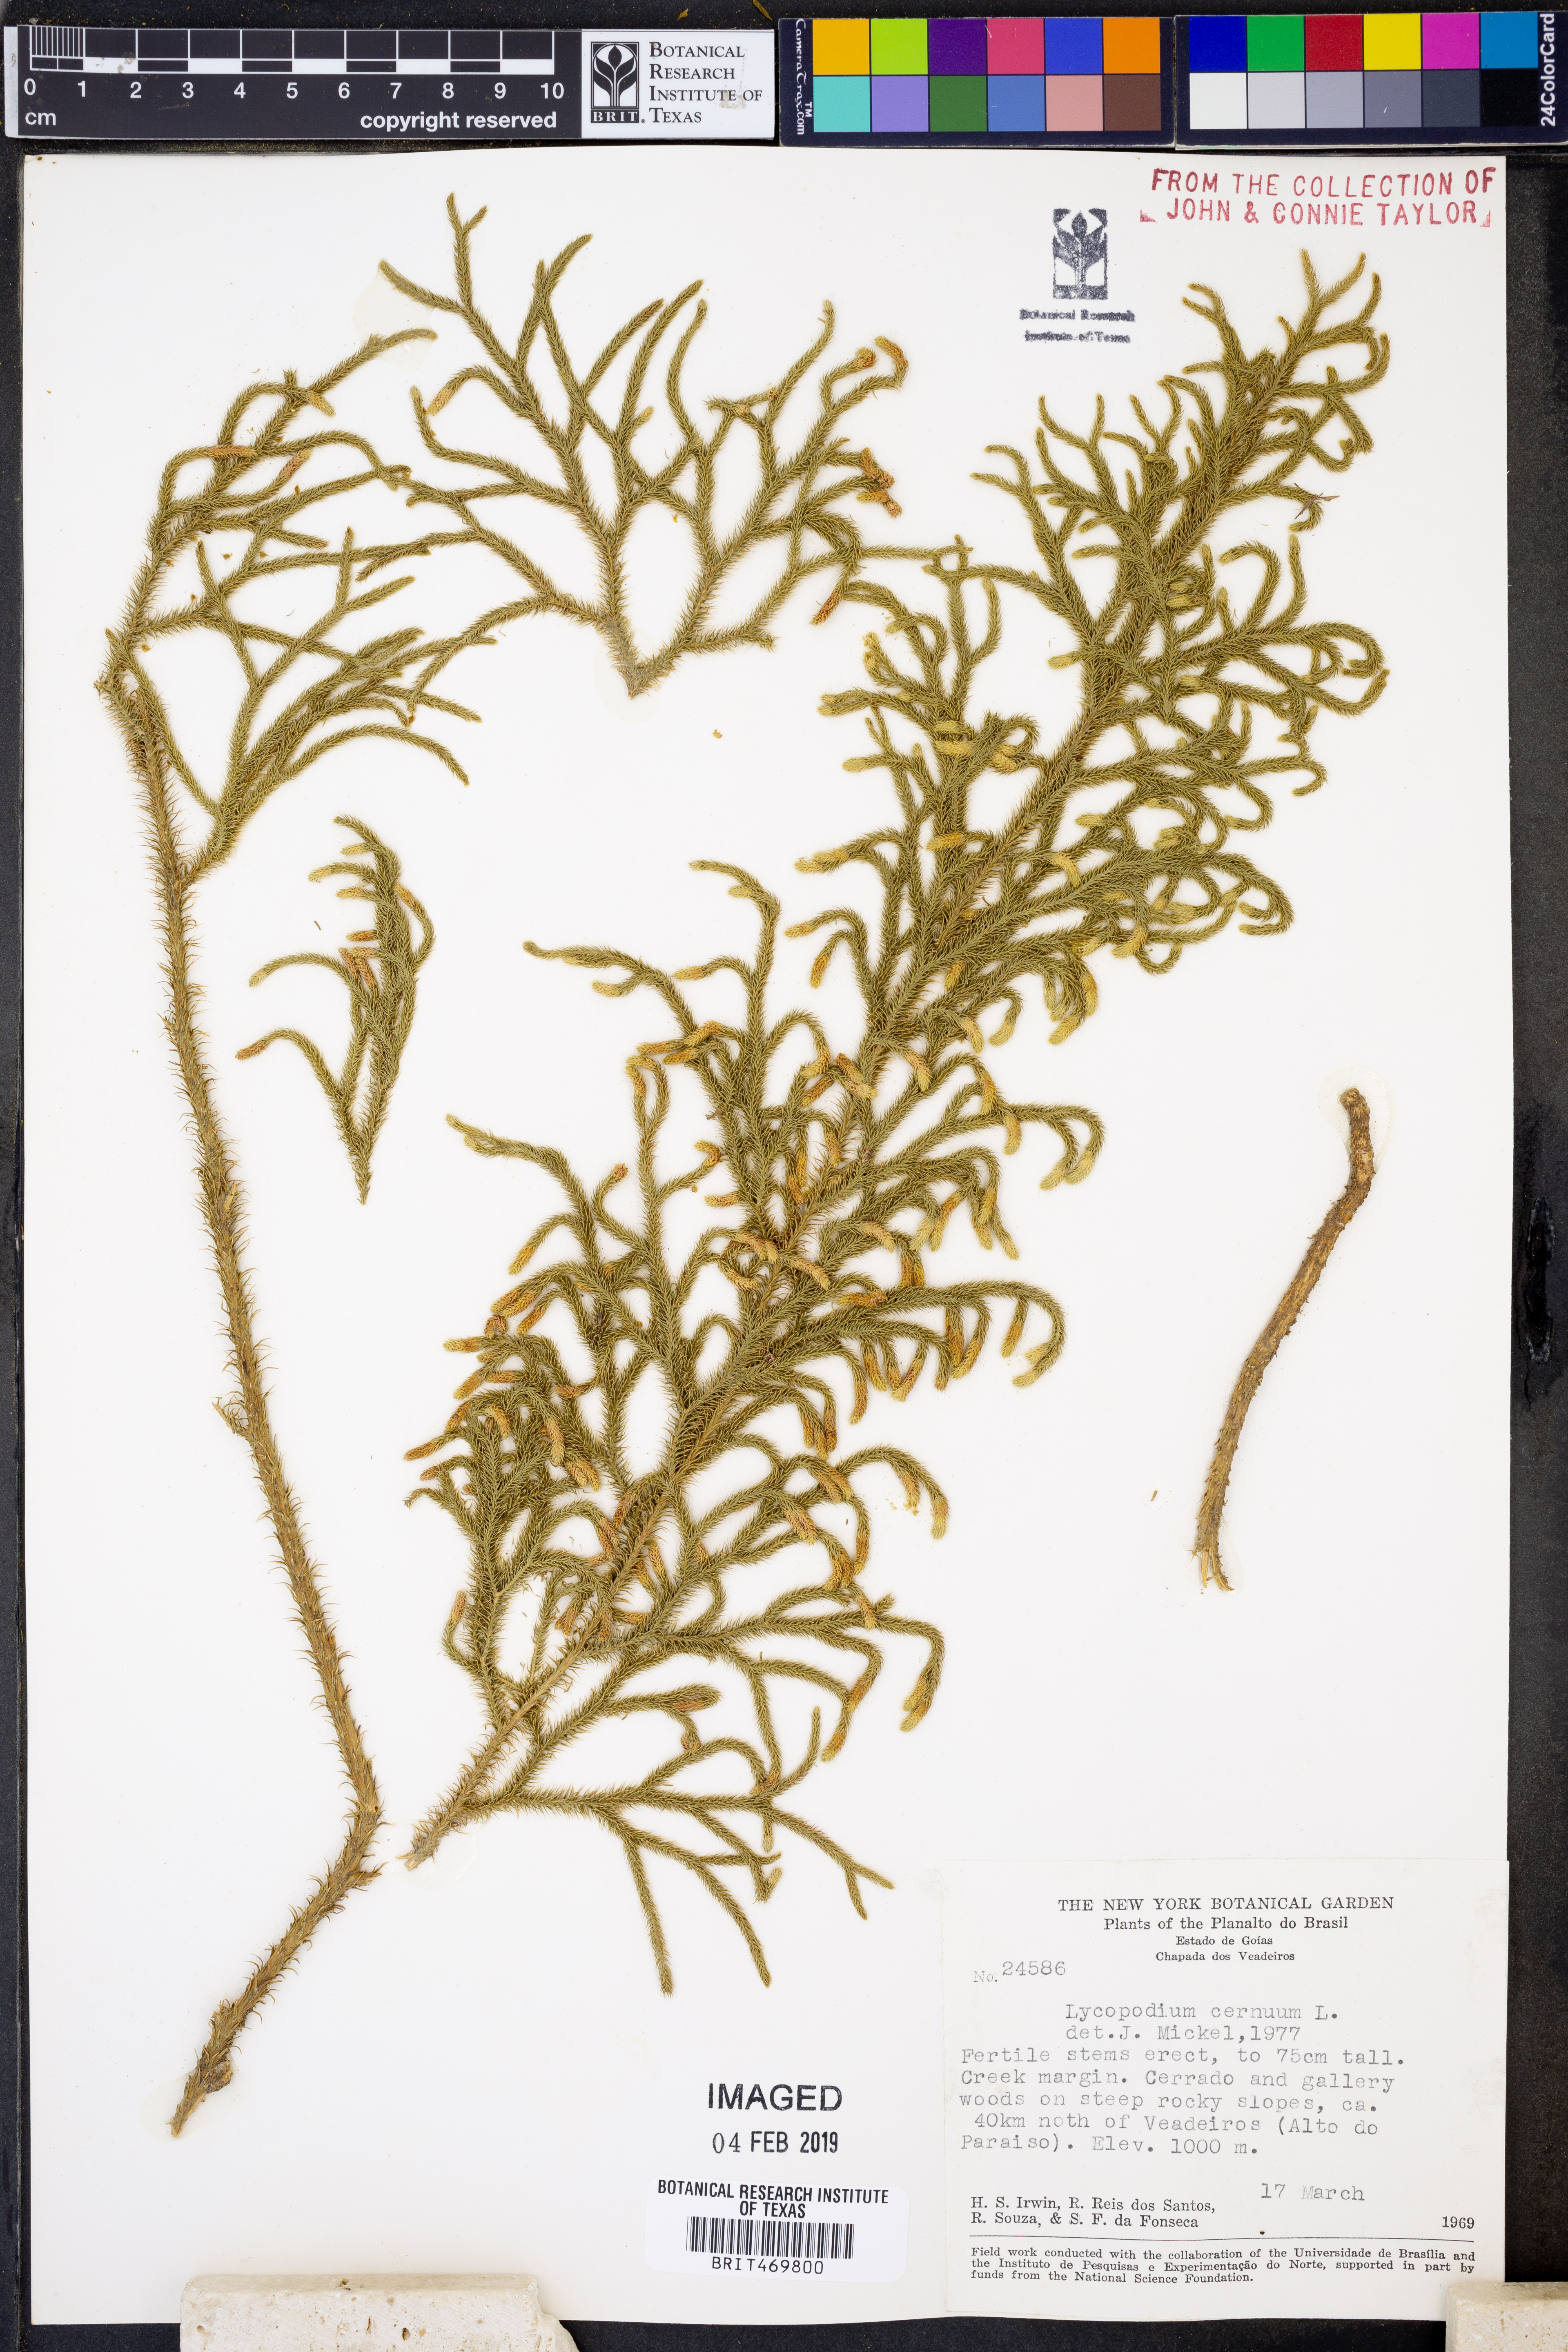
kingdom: Plantae
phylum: Tracheophyta
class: Lycopodiopsida
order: Lycopodiales
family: Lycopodiaceae
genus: Palhinhaea
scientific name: Palhinhaea cernua
